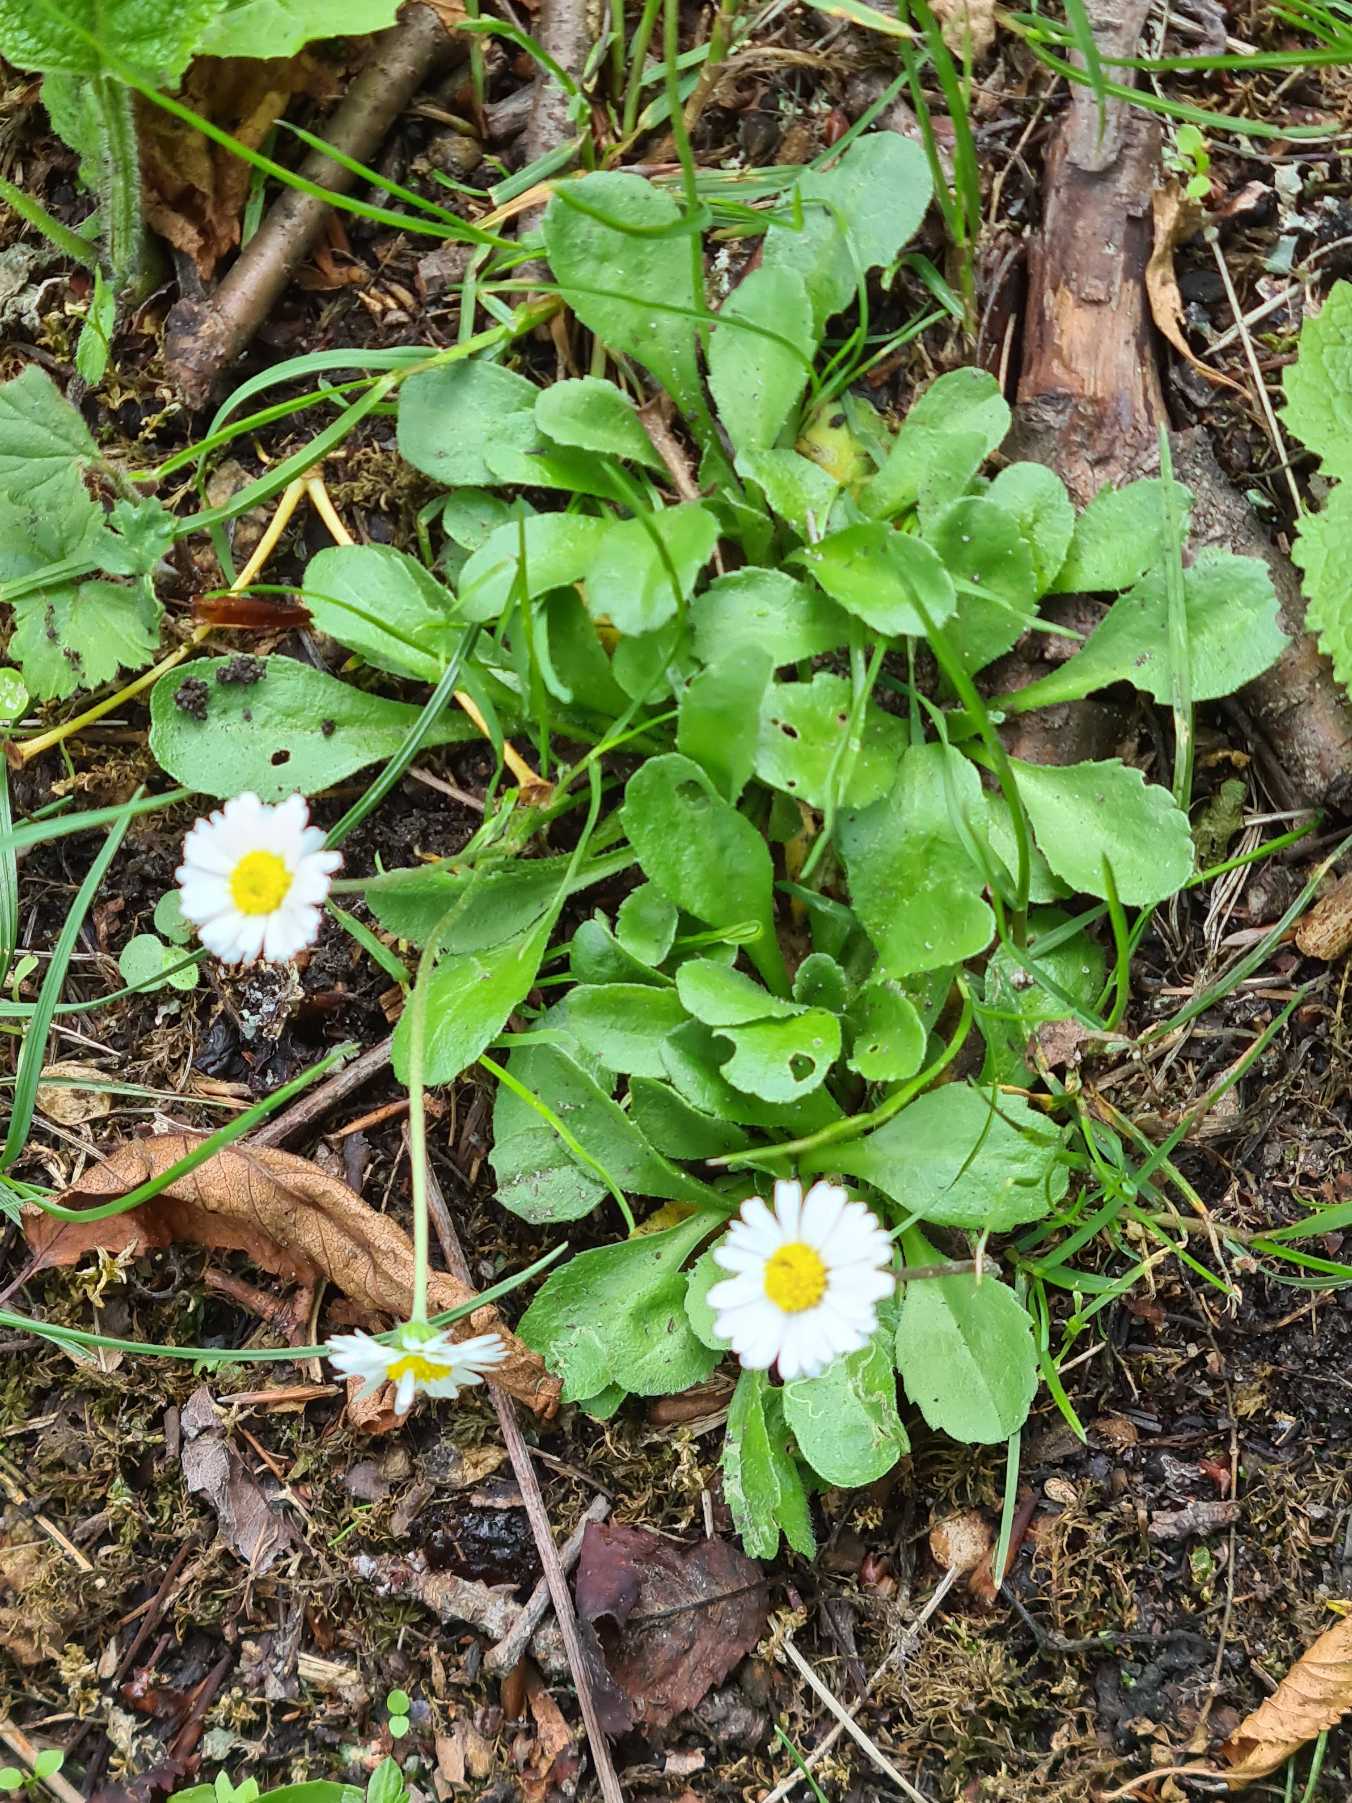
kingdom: Plantae
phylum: Tracheophyta
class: Magnoliopsida
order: Asterales
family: Asteraceae
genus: Bellis
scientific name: Bellis perennis
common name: Tusindfryd
